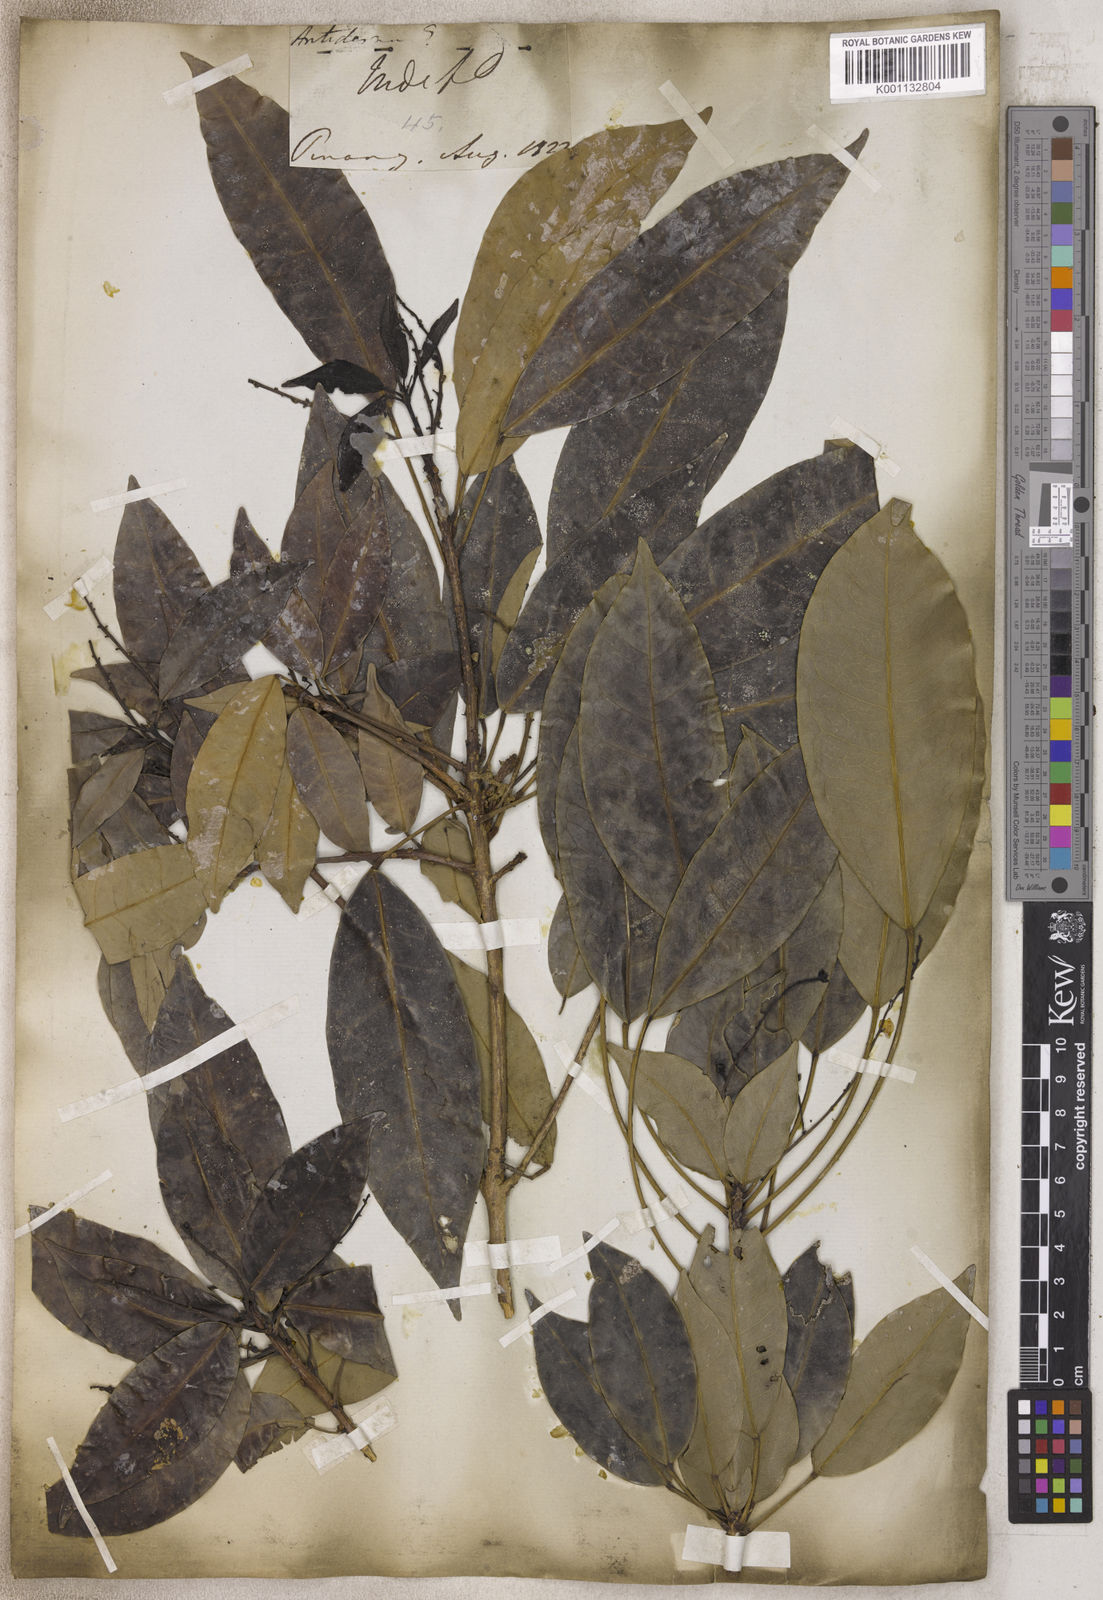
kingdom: Plantae
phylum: Tracheophyta
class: Magnoliopsida
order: Malpighiales
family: Phyllanthaceae
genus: Antidesma
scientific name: Antidesma
